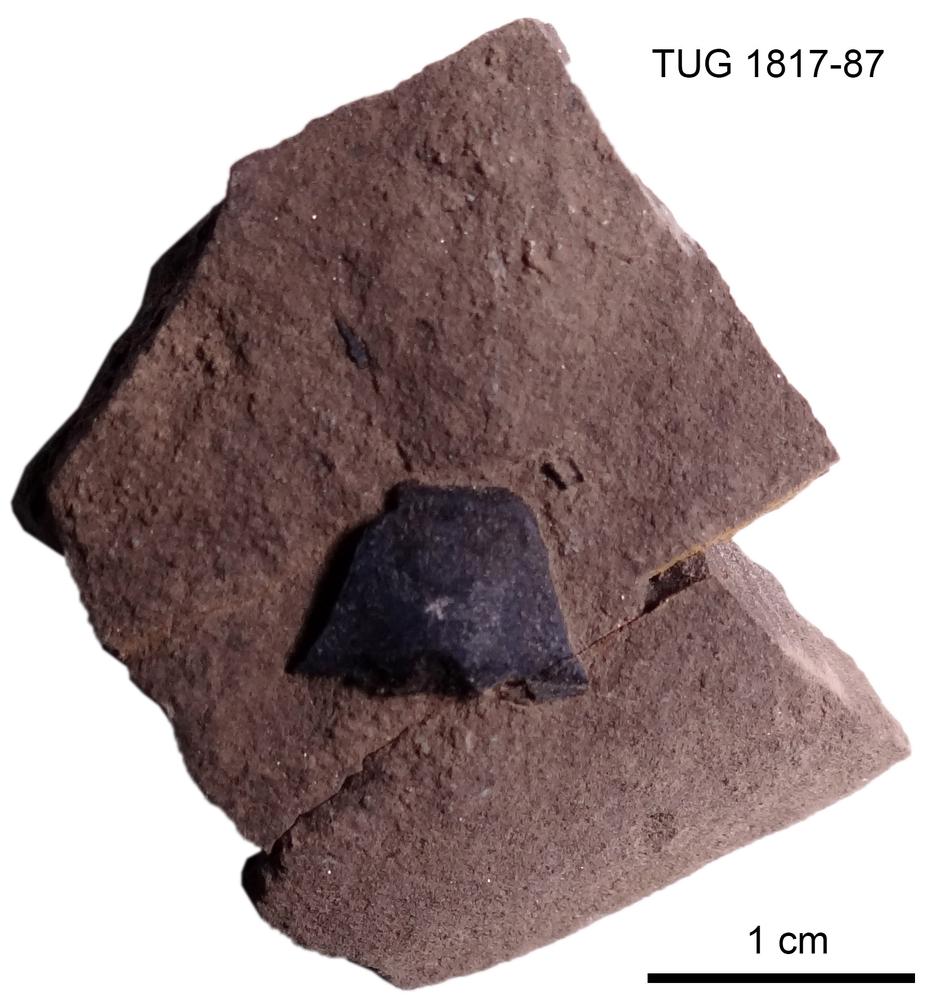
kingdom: Animalia
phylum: Chordata
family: Coccosteidae
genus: Millerosteus
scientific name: Millerosteus minor
